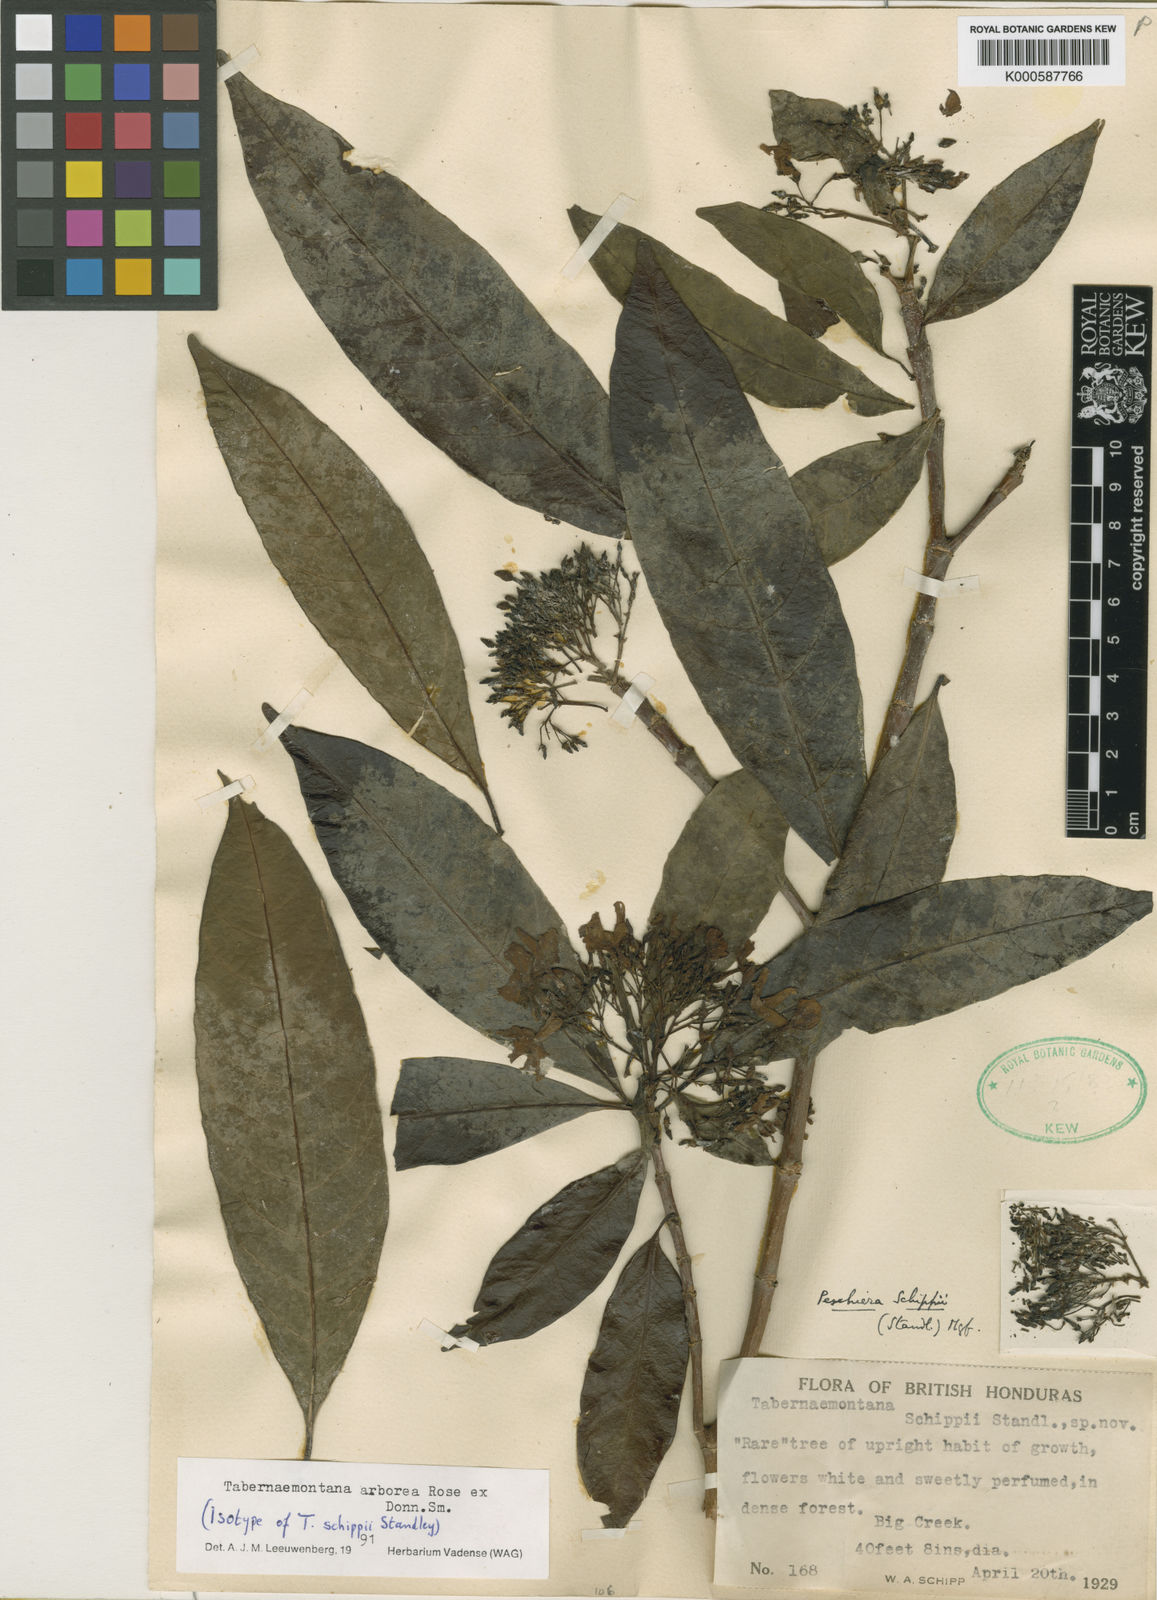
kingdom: Plantae
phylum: Tracheophyta
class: Magnoliopsida
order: Gentianales
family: Apocynaceae
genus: Tabernaemontana
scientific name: Tabernaemontana arborea
